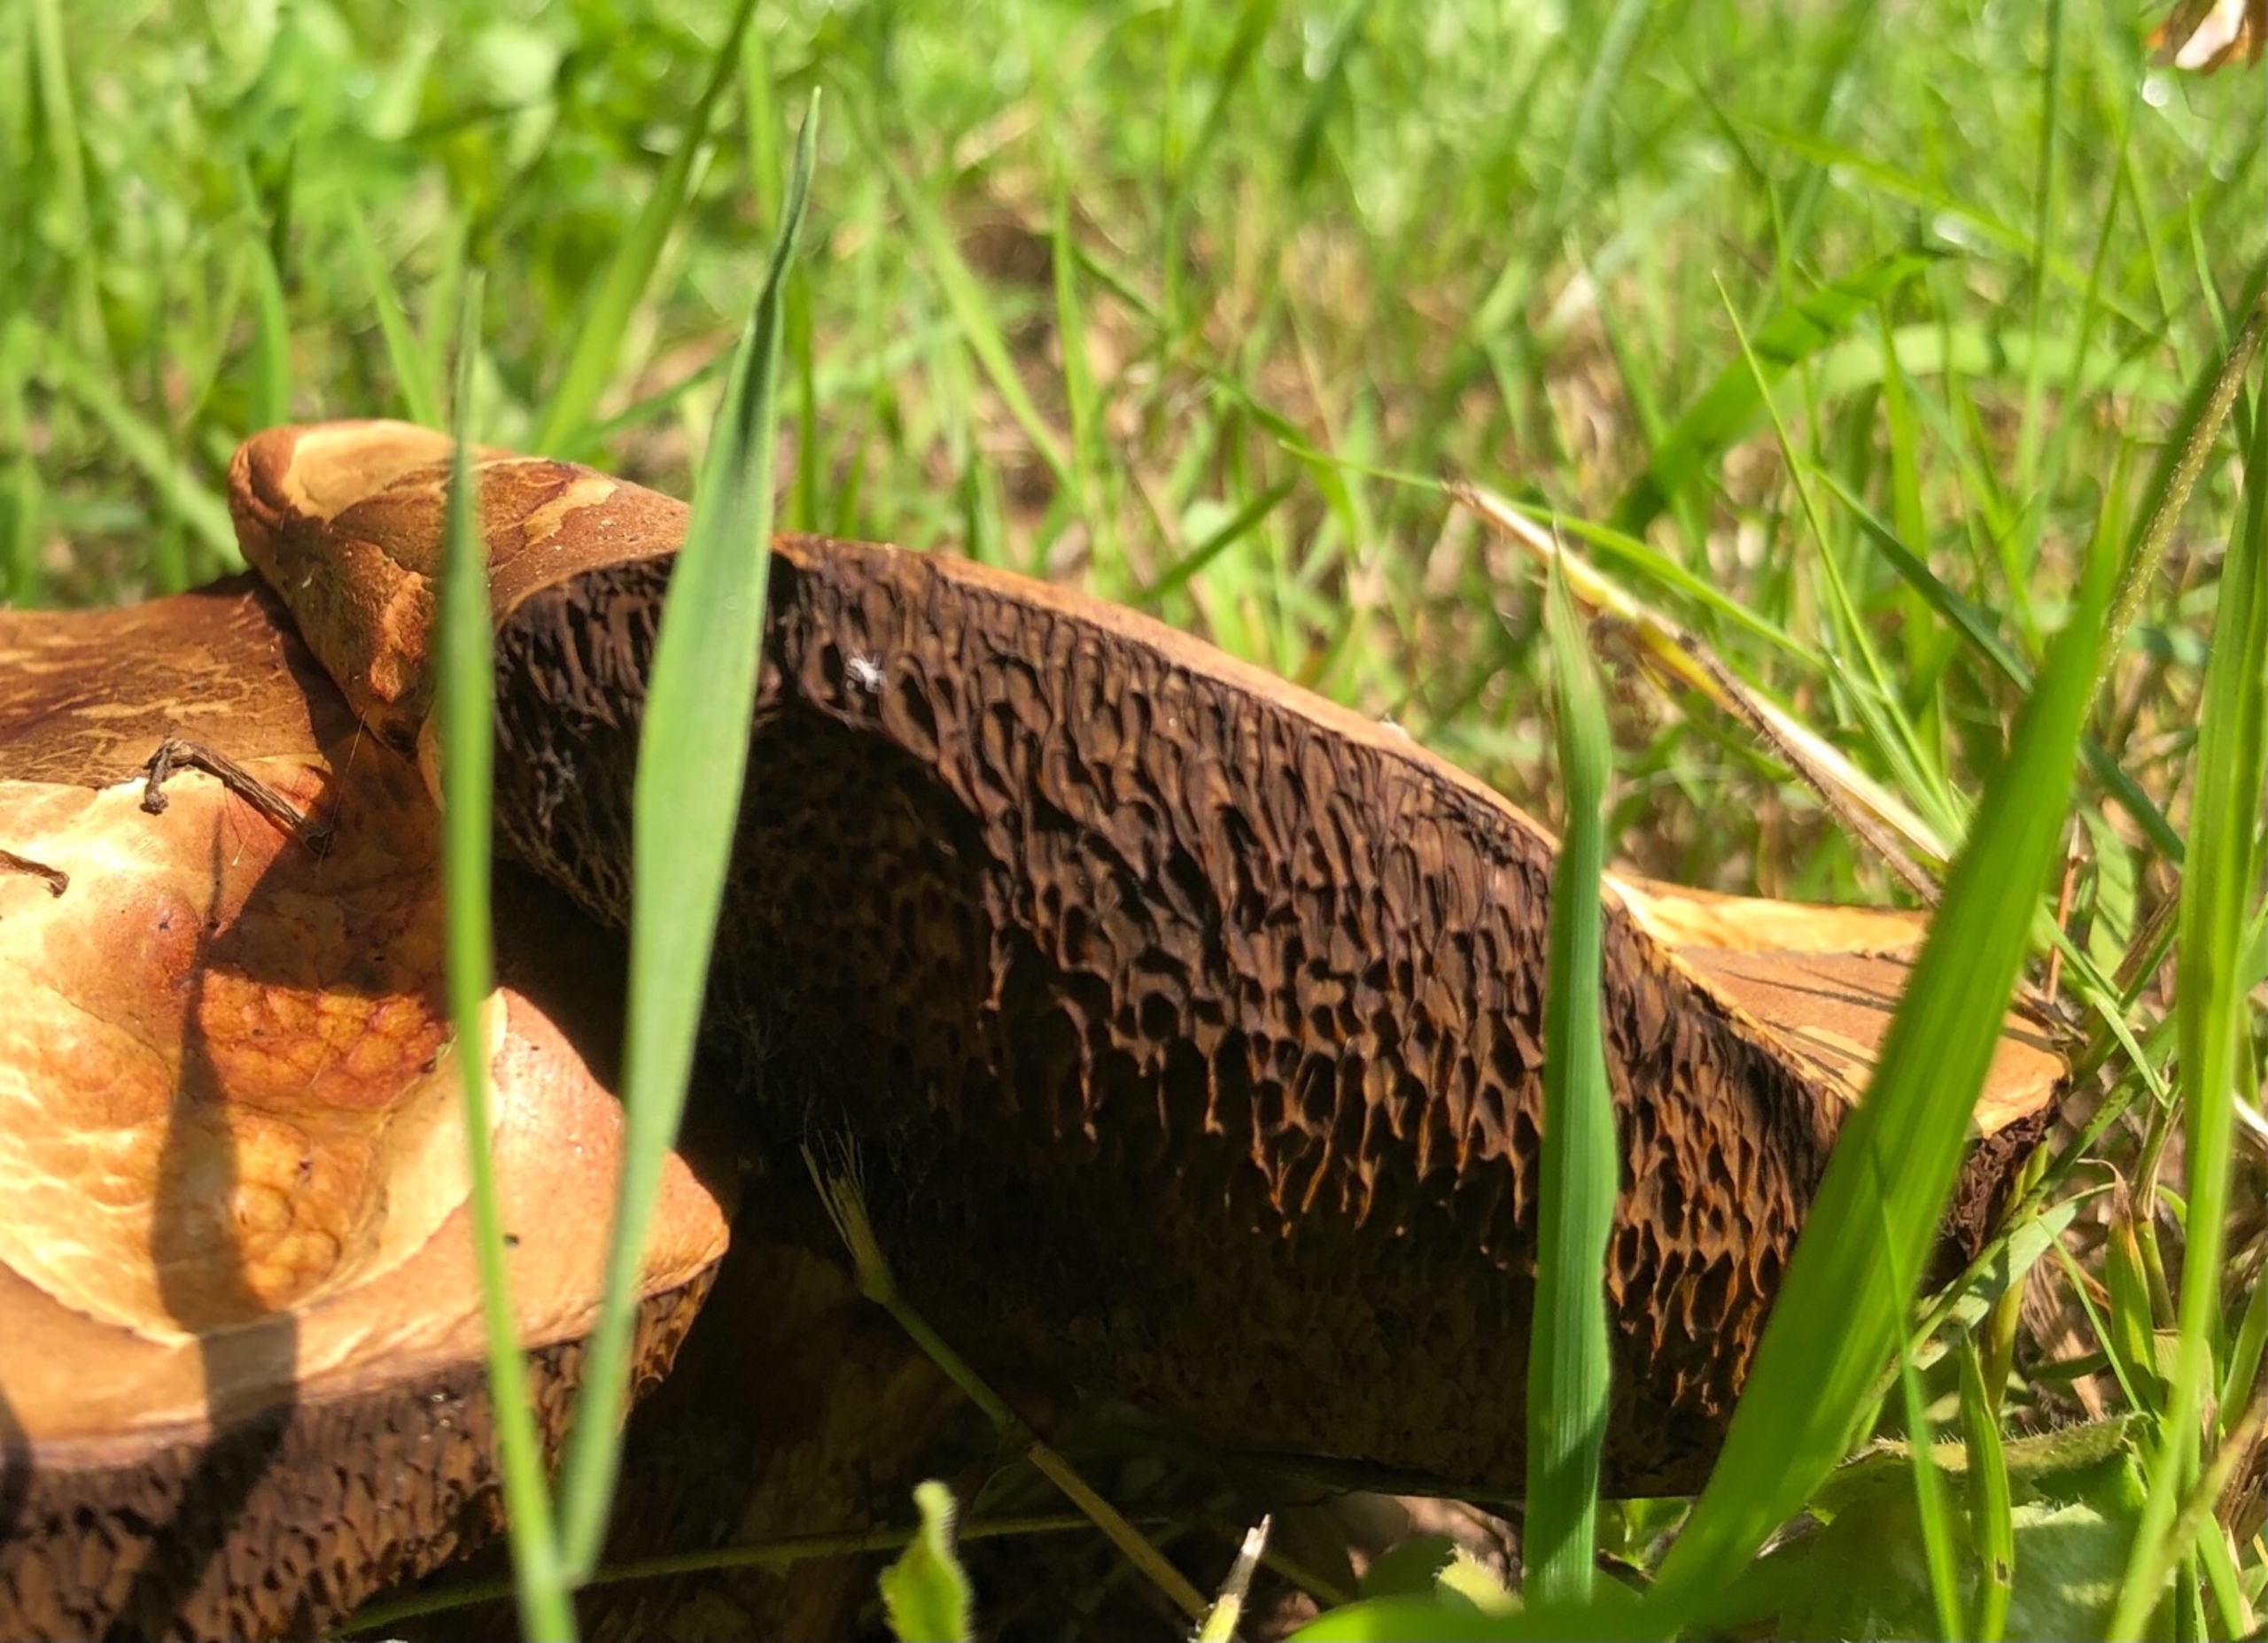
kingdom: Fungi
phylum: Basidiomycota
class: Agaricomycetes
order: Boletales
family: Boletaceae
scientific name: Boletaceae
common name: Rørhatfamilien
